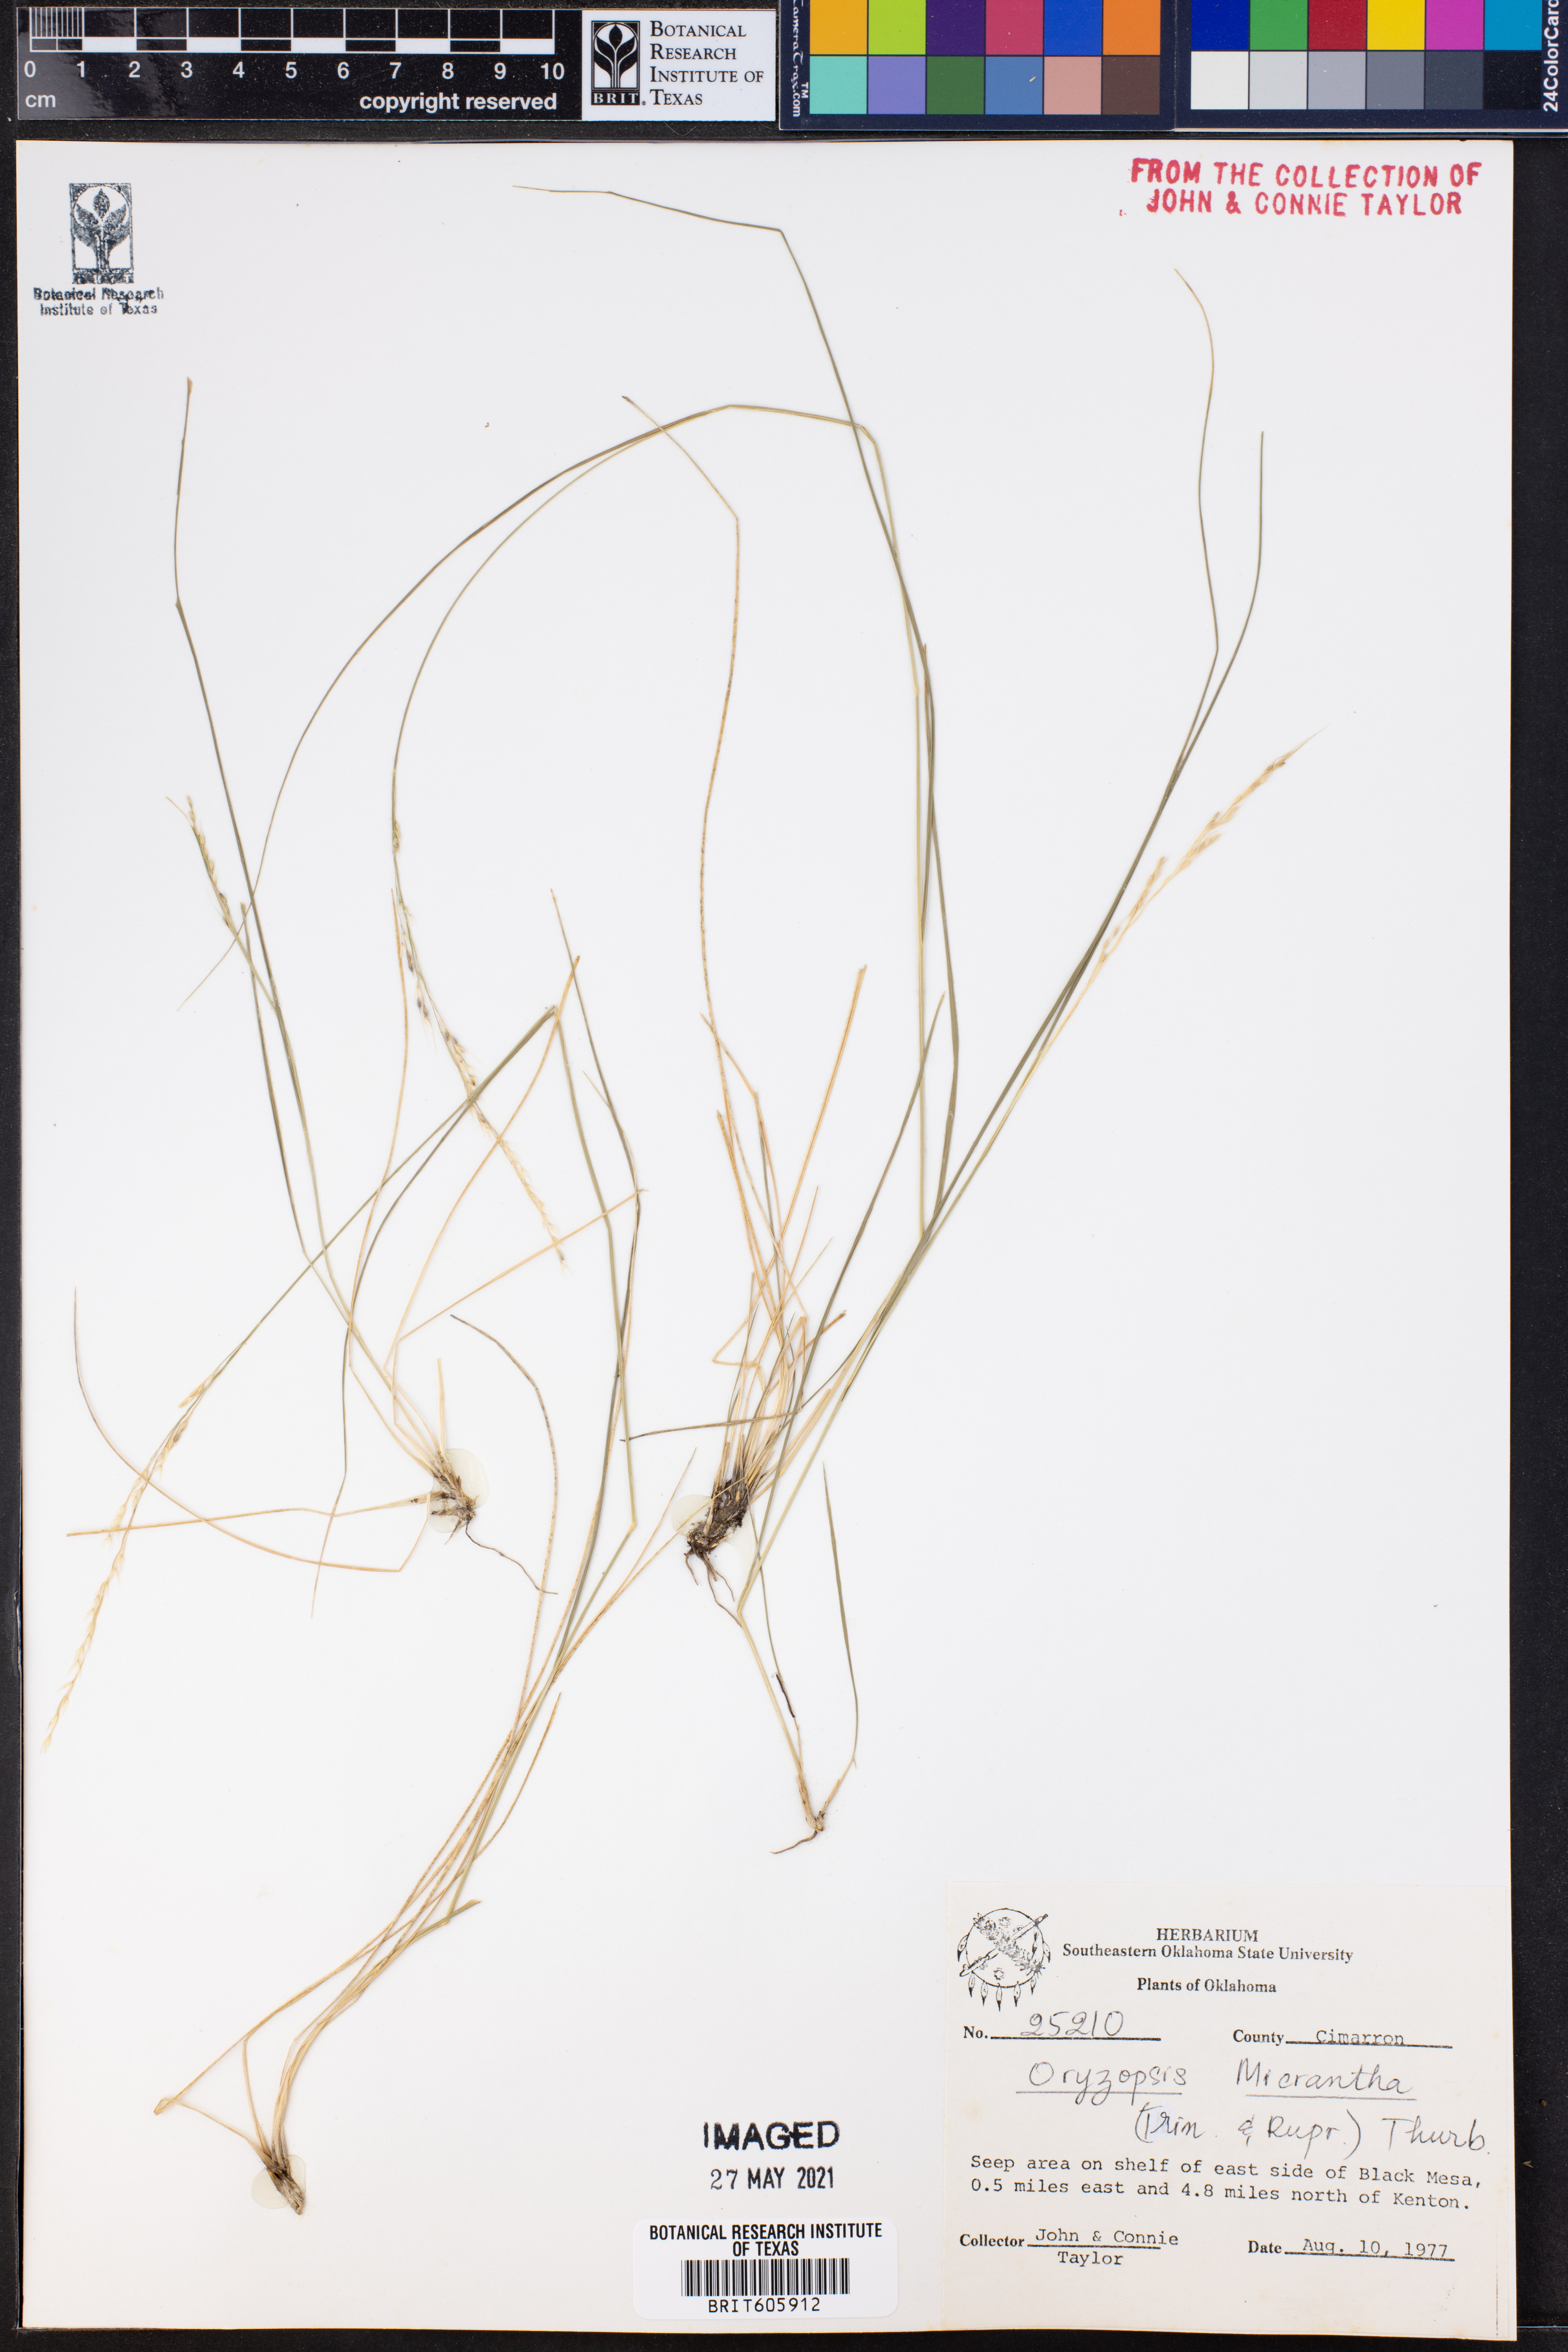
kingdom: Plantae
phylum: Tracheophyta
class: Liliopsida
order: Poales
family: Poaceae
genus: Piptatheropsis
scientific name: Piptatheropsis micrantha
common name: Little-seed mountain ricegrass
